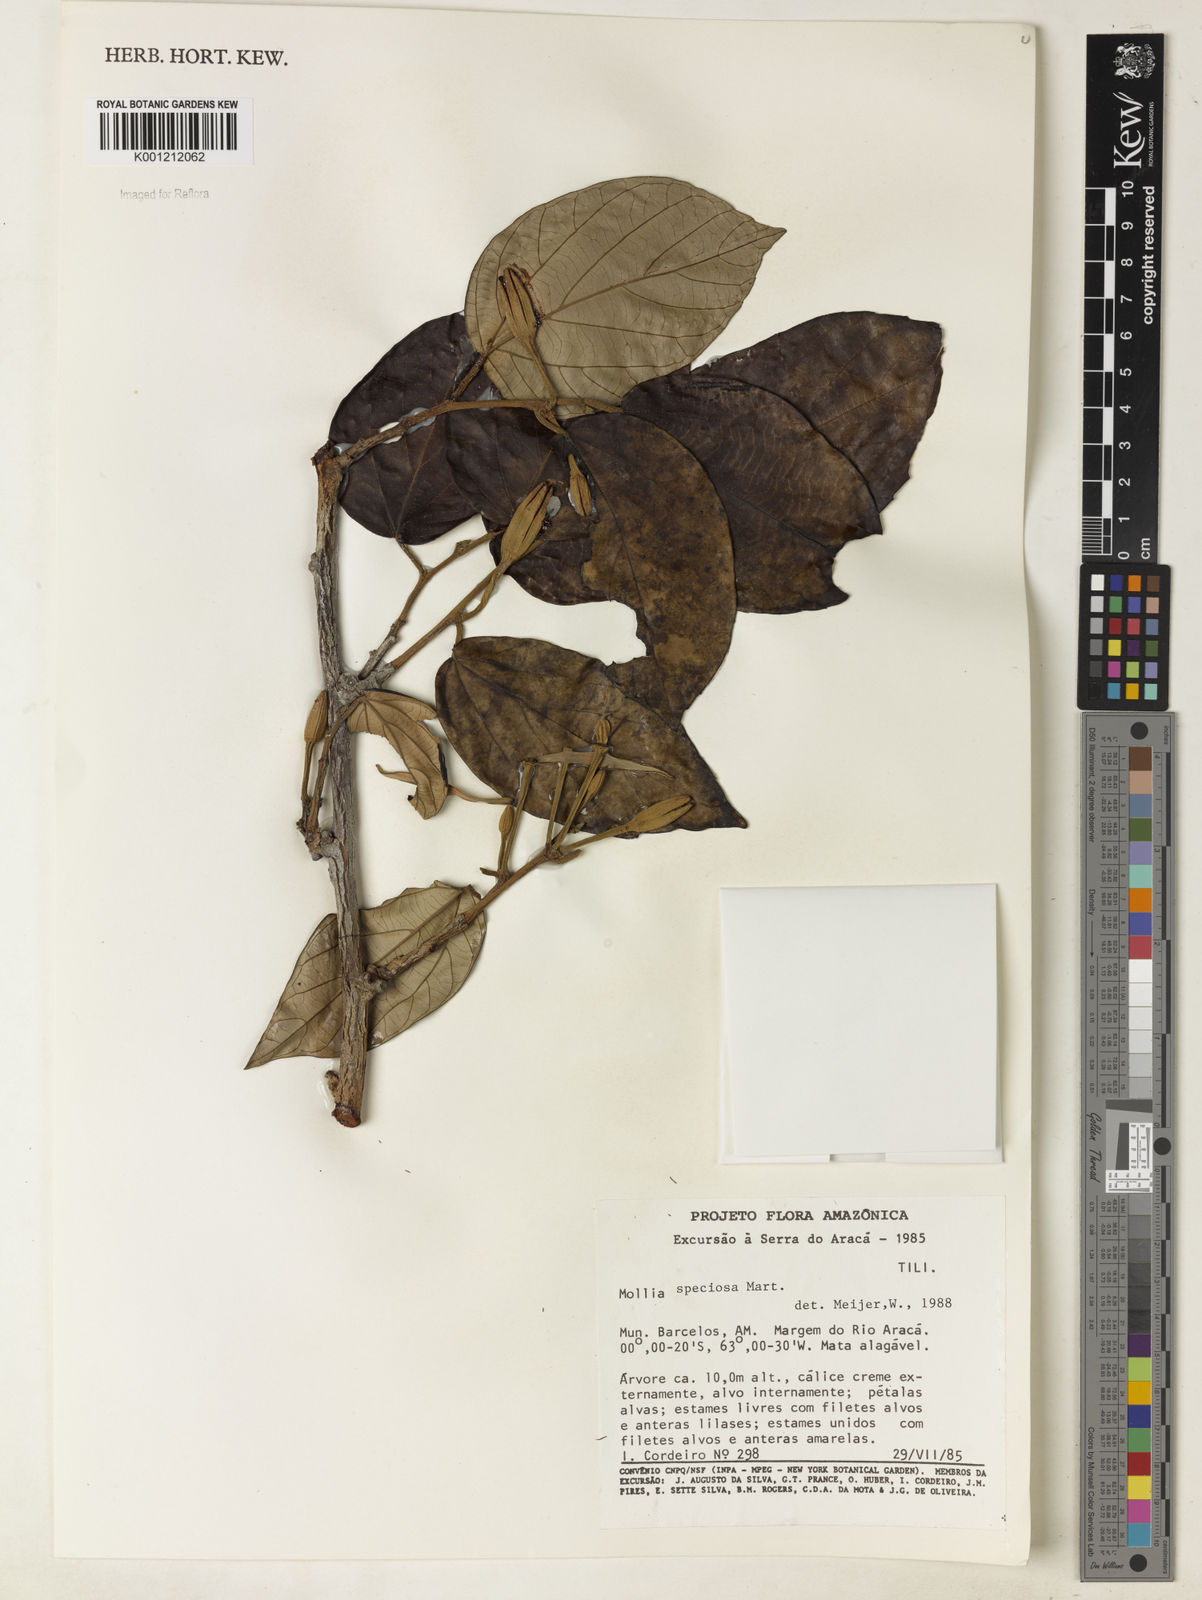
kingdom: Plantae
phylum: Tracheophyta
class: Magnoliopsida
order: Malvales
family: Malvaceae
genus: Mollia
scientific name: Mollia speciosa
